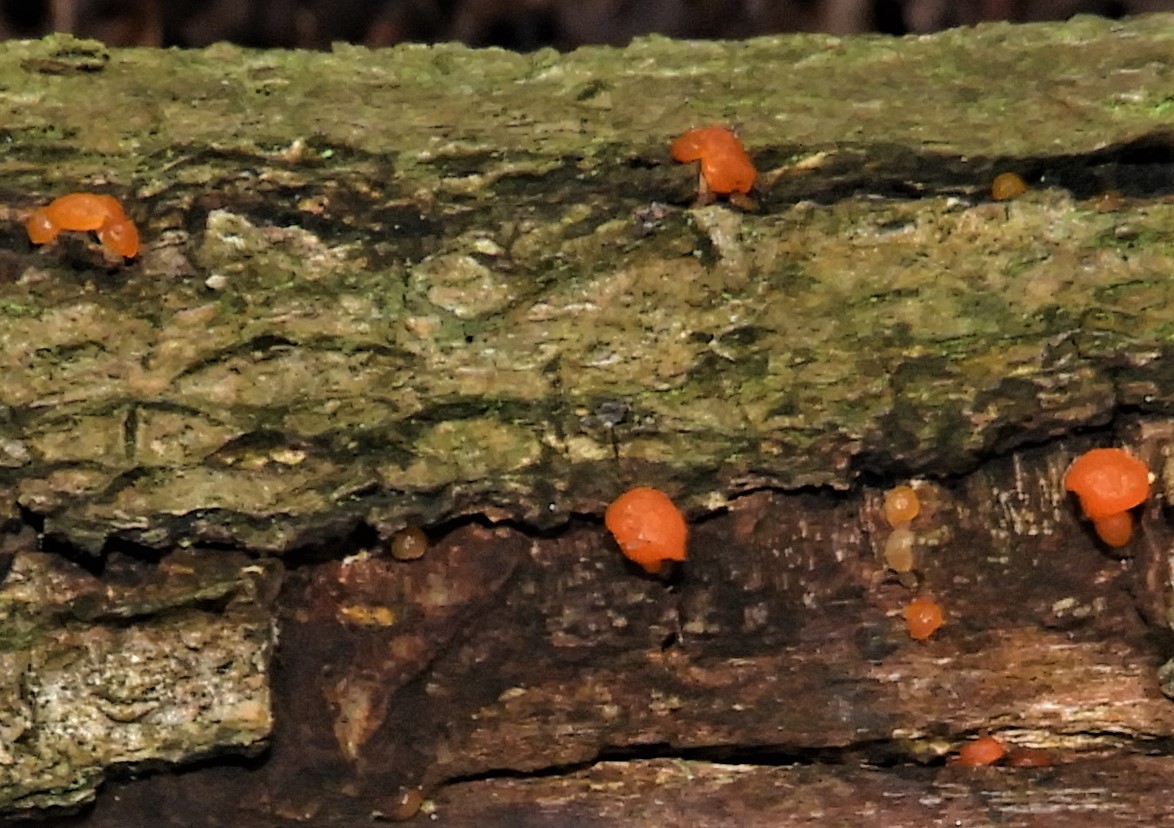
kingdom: Fungi
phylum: Basidiomycota
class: Dacrymycetes
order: Dacrymycetales
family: Dacrymycetaceae
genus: Dacrymyces
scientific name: Dacrymyces stillatus
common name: almindelig tåresvamp
